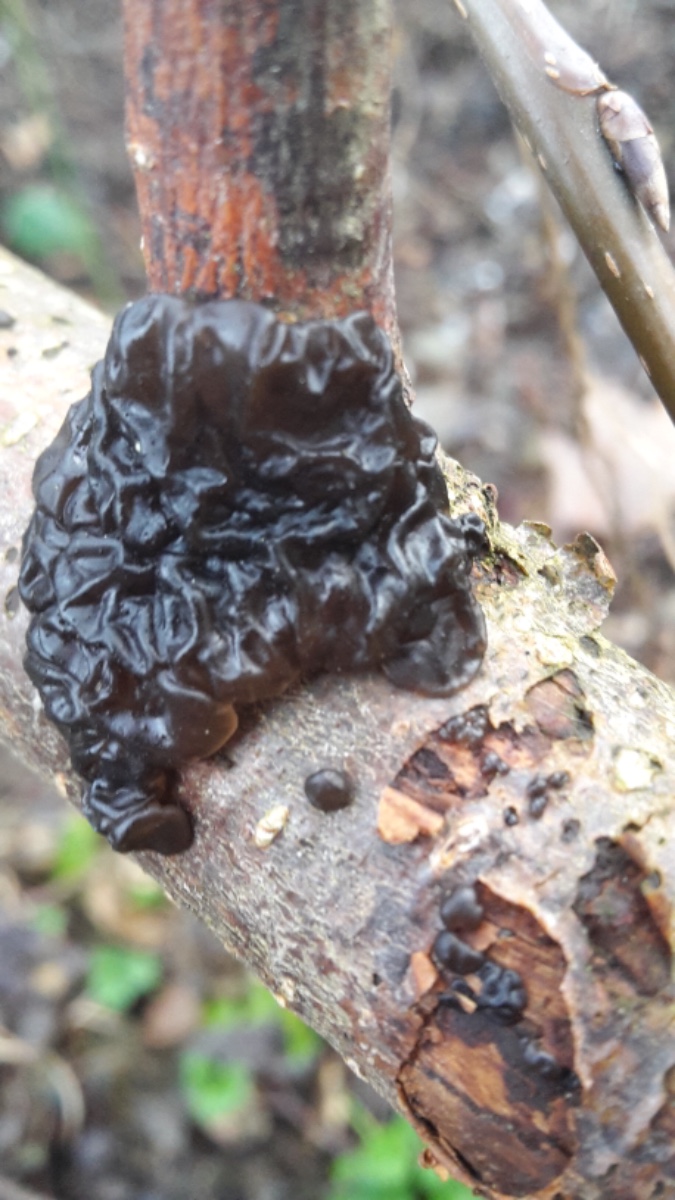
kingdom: Fungi
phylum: Basidiomycota
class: Agaricomycetes
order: Auriculariales
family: Auriculariaceae
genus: Exidia
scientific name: Exidia nigricans
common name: almindelig bævretop
